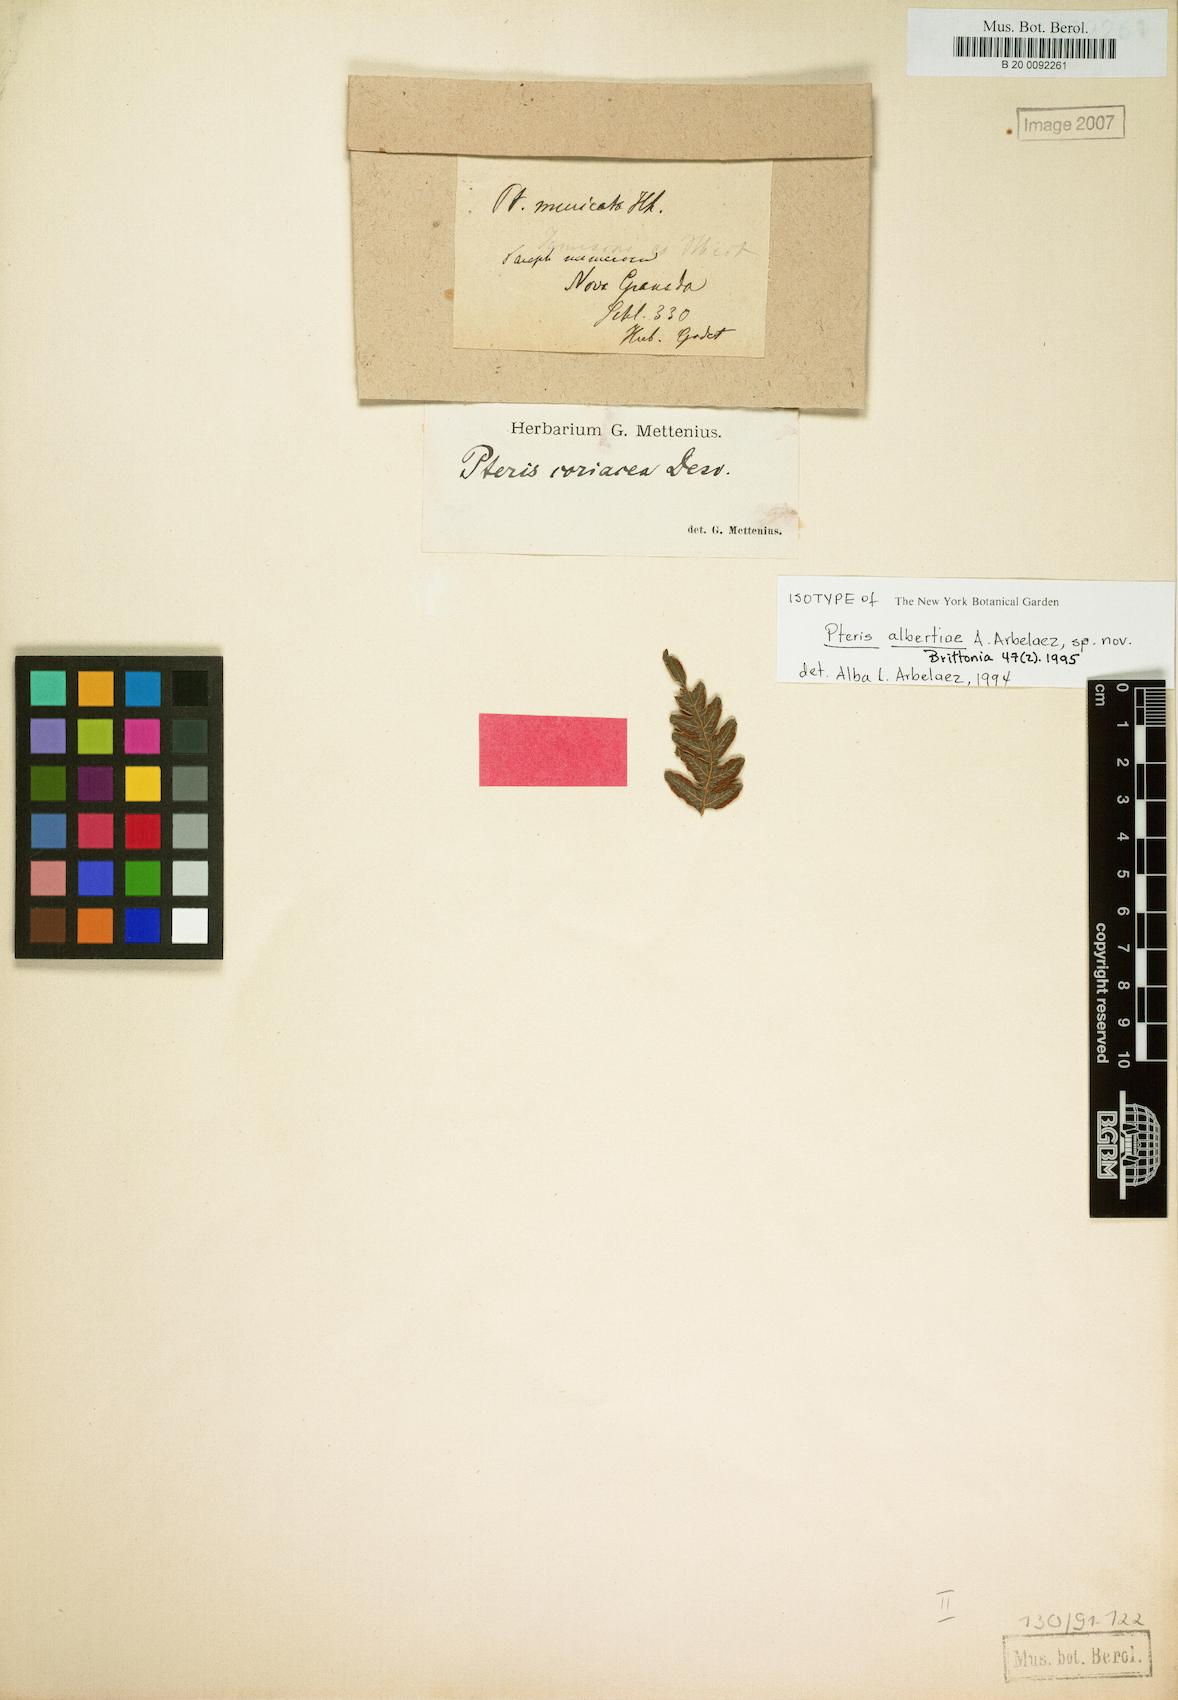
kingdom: Plantae
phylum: Tracheophyta
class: Polypodiopsida
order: Polypodiales
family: Pteridaceae
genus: Pteris
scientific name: Pteris albertiae
